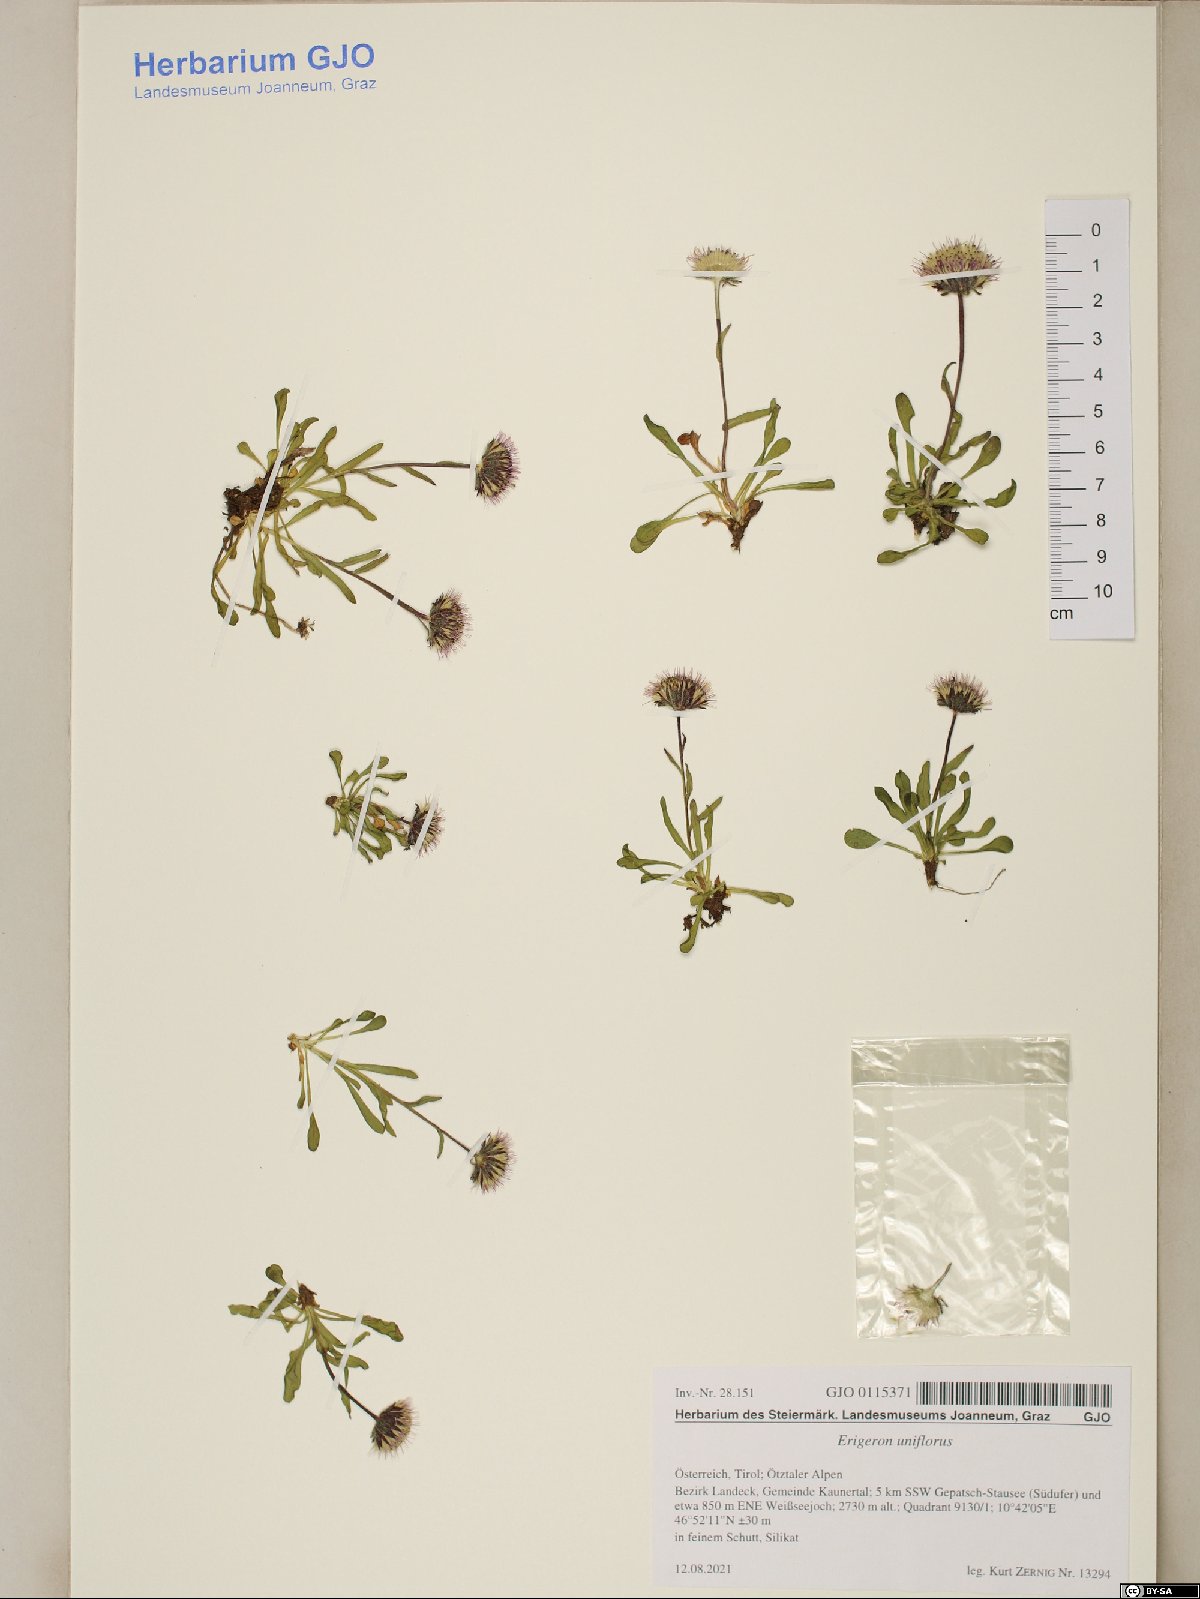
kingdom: Plantae
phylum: Tracheophyta
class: Magnoliopsida
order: Asterales
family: Asteraceae
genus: Erigeron
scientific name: Erigeron uniflorus
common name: Northern daisy
